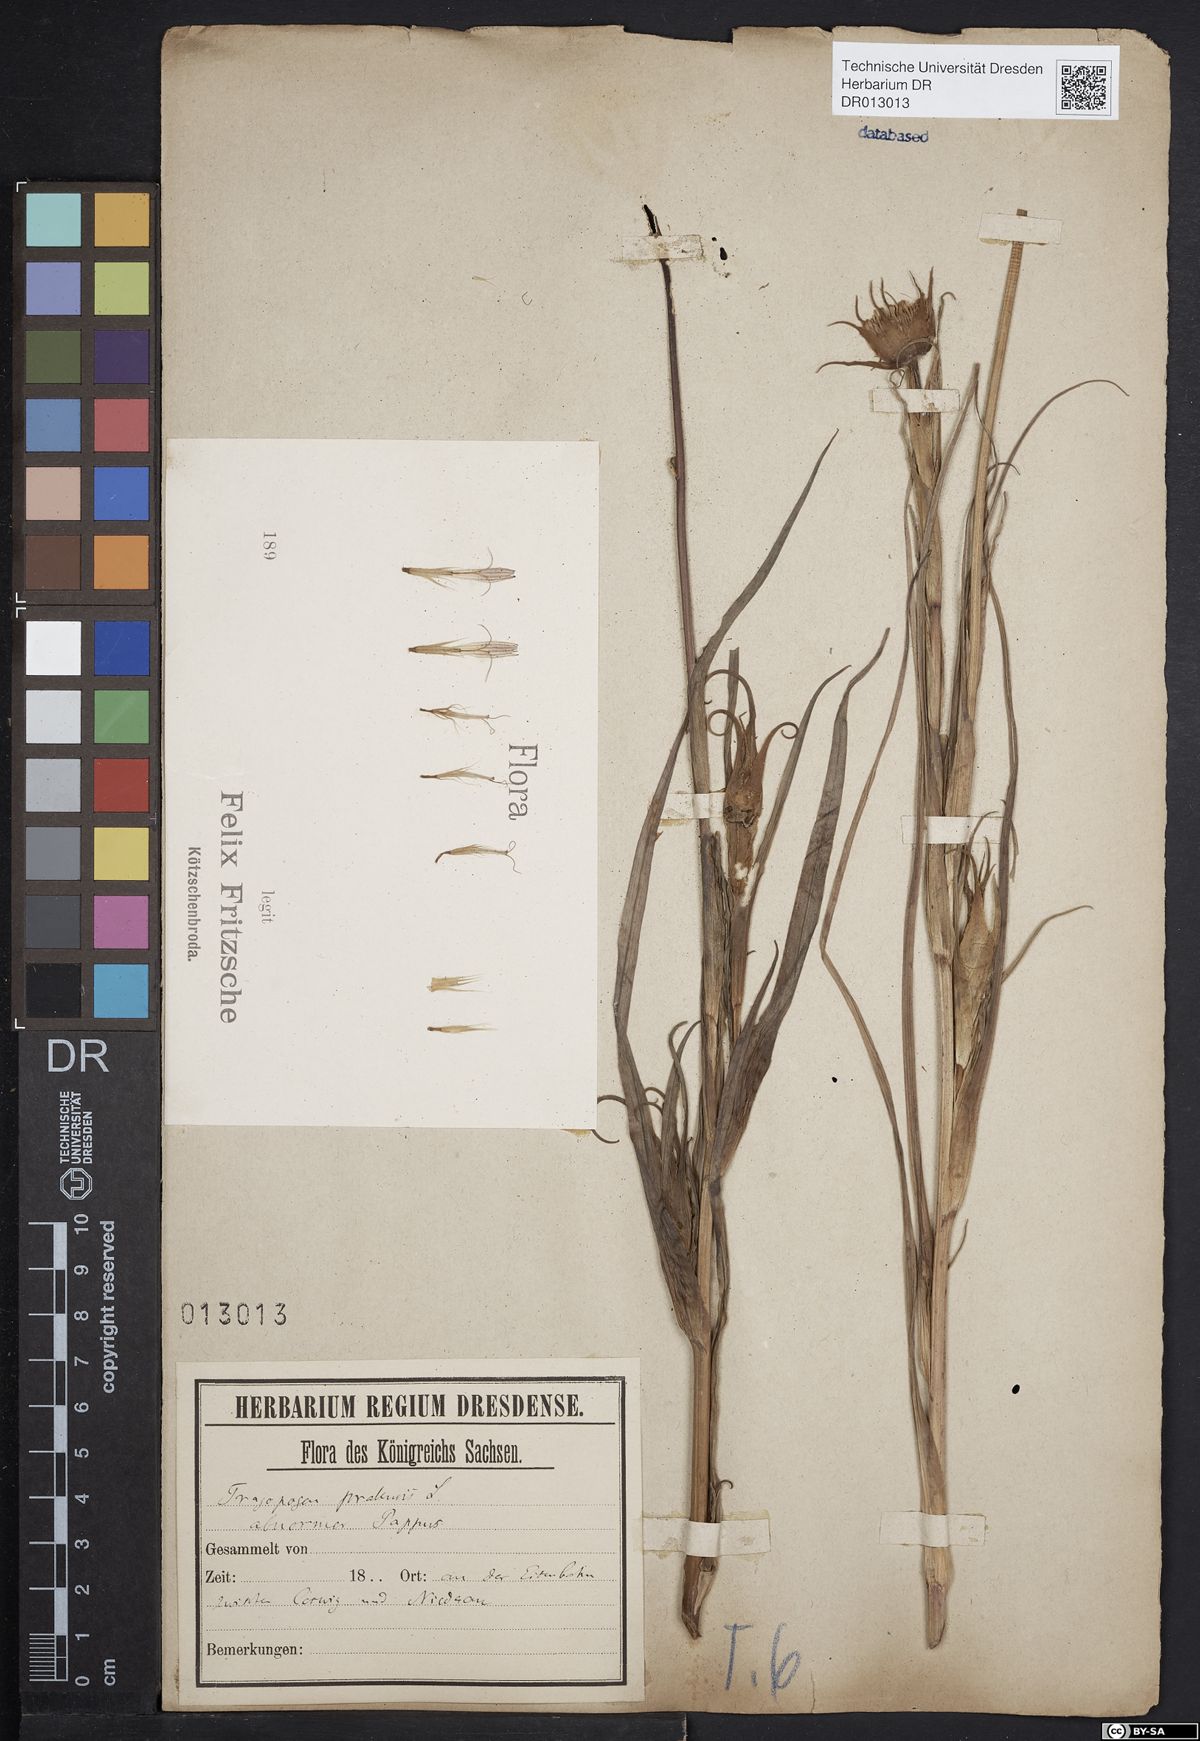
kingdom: Plantae
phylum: Tracheophyta
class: Magnoliopsida
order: Asterales
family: Asteraceae
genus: Tragopogon
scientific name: Tragopogon pratensis
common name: Goat's-beard
